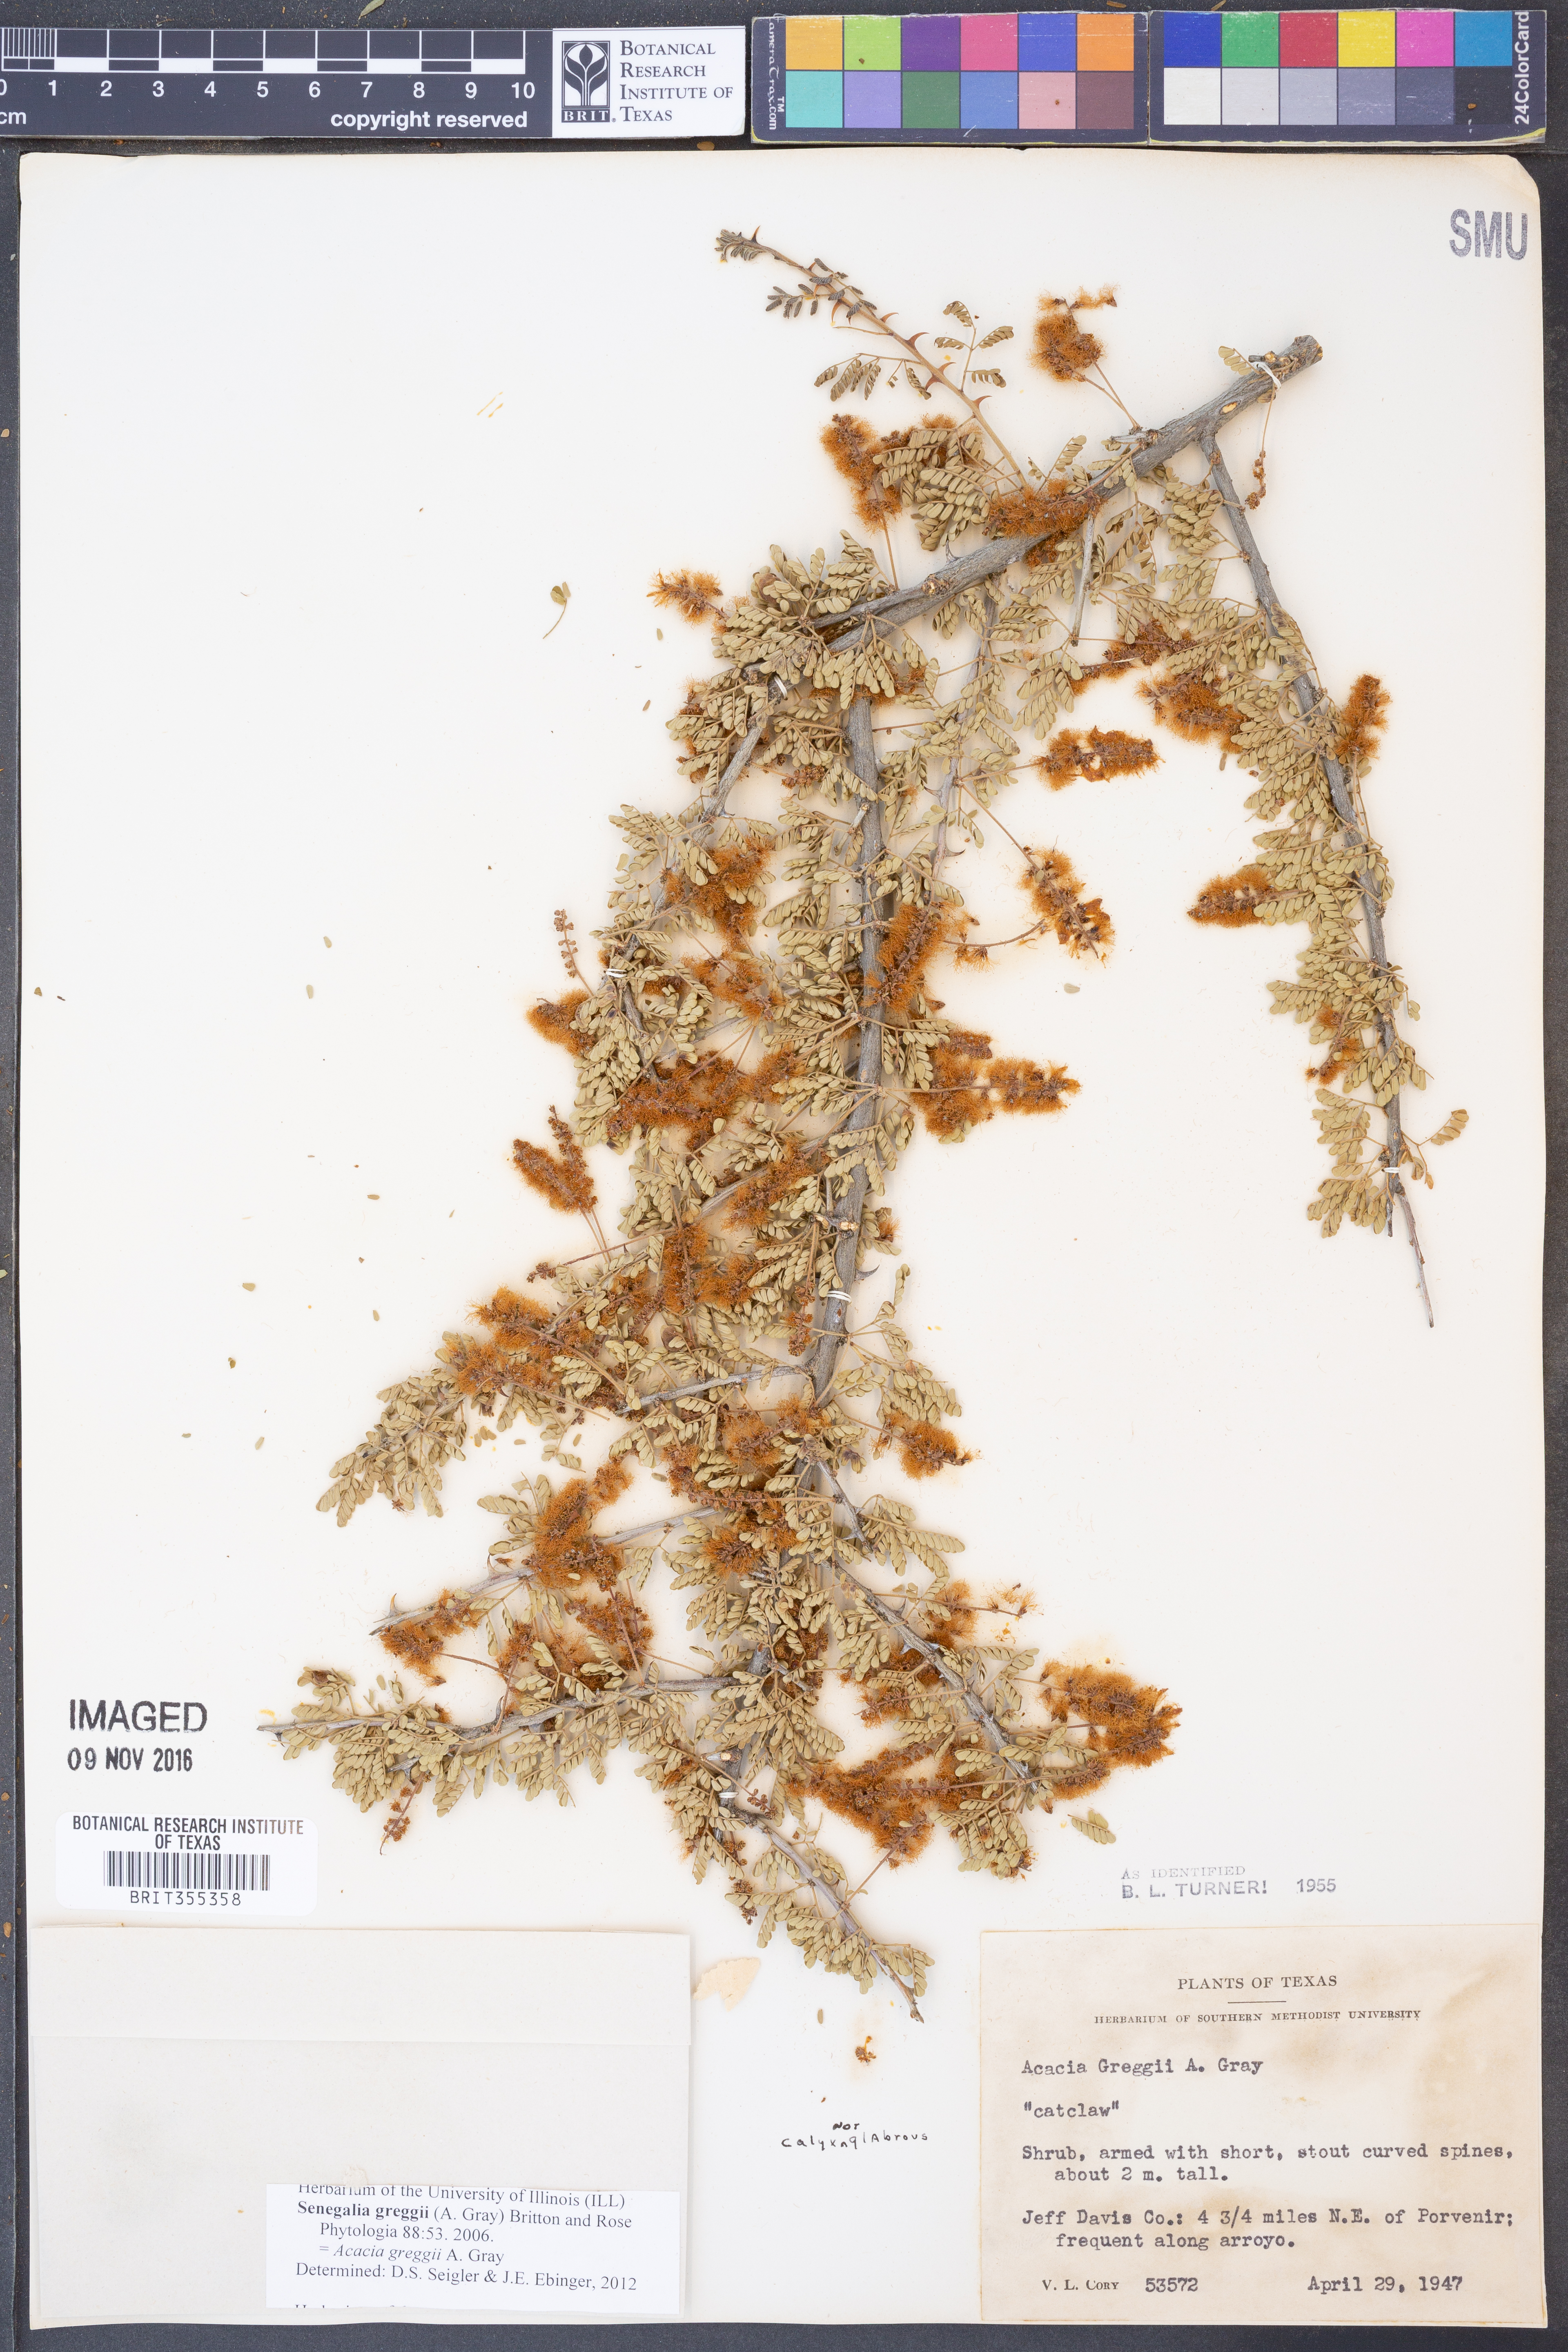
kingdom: Plantae
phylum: Tracheophyta
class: Magnoliopsida
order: Fabales
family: Fabaceae
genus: Senegalia
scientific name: Senegalia greggii
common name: Texas-mimosa
